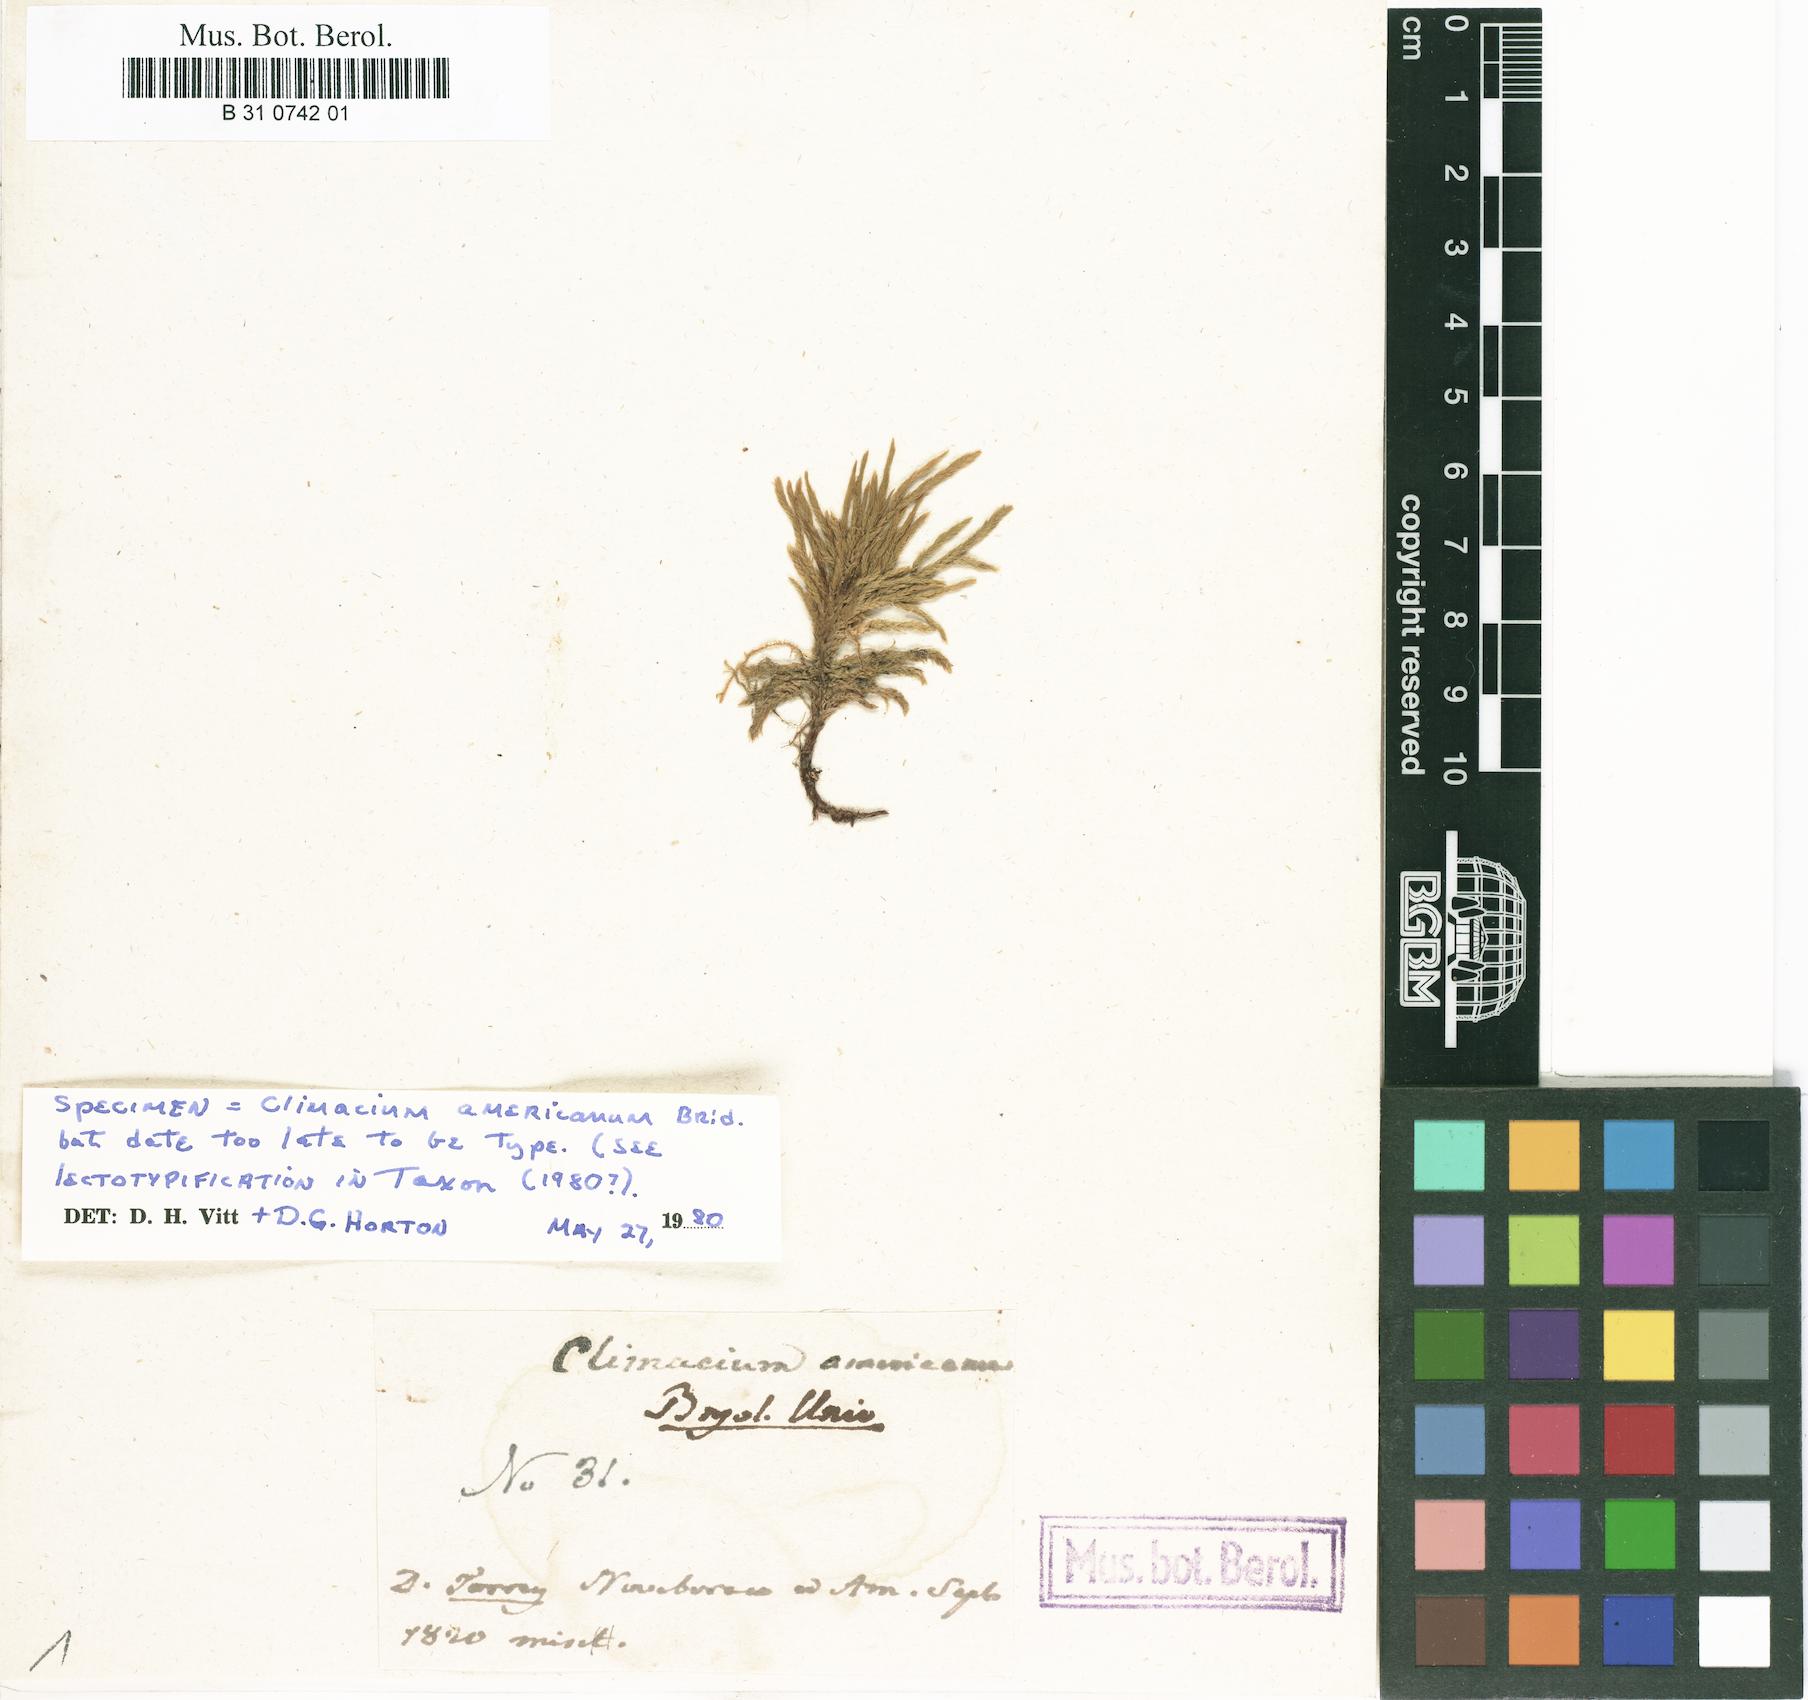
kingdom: Plantae
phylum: Bryophyta
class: Bryopsida
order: Hypnales
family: Climaciaceae
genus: Climacium
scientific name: Climacium americanum
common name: American tree moss
